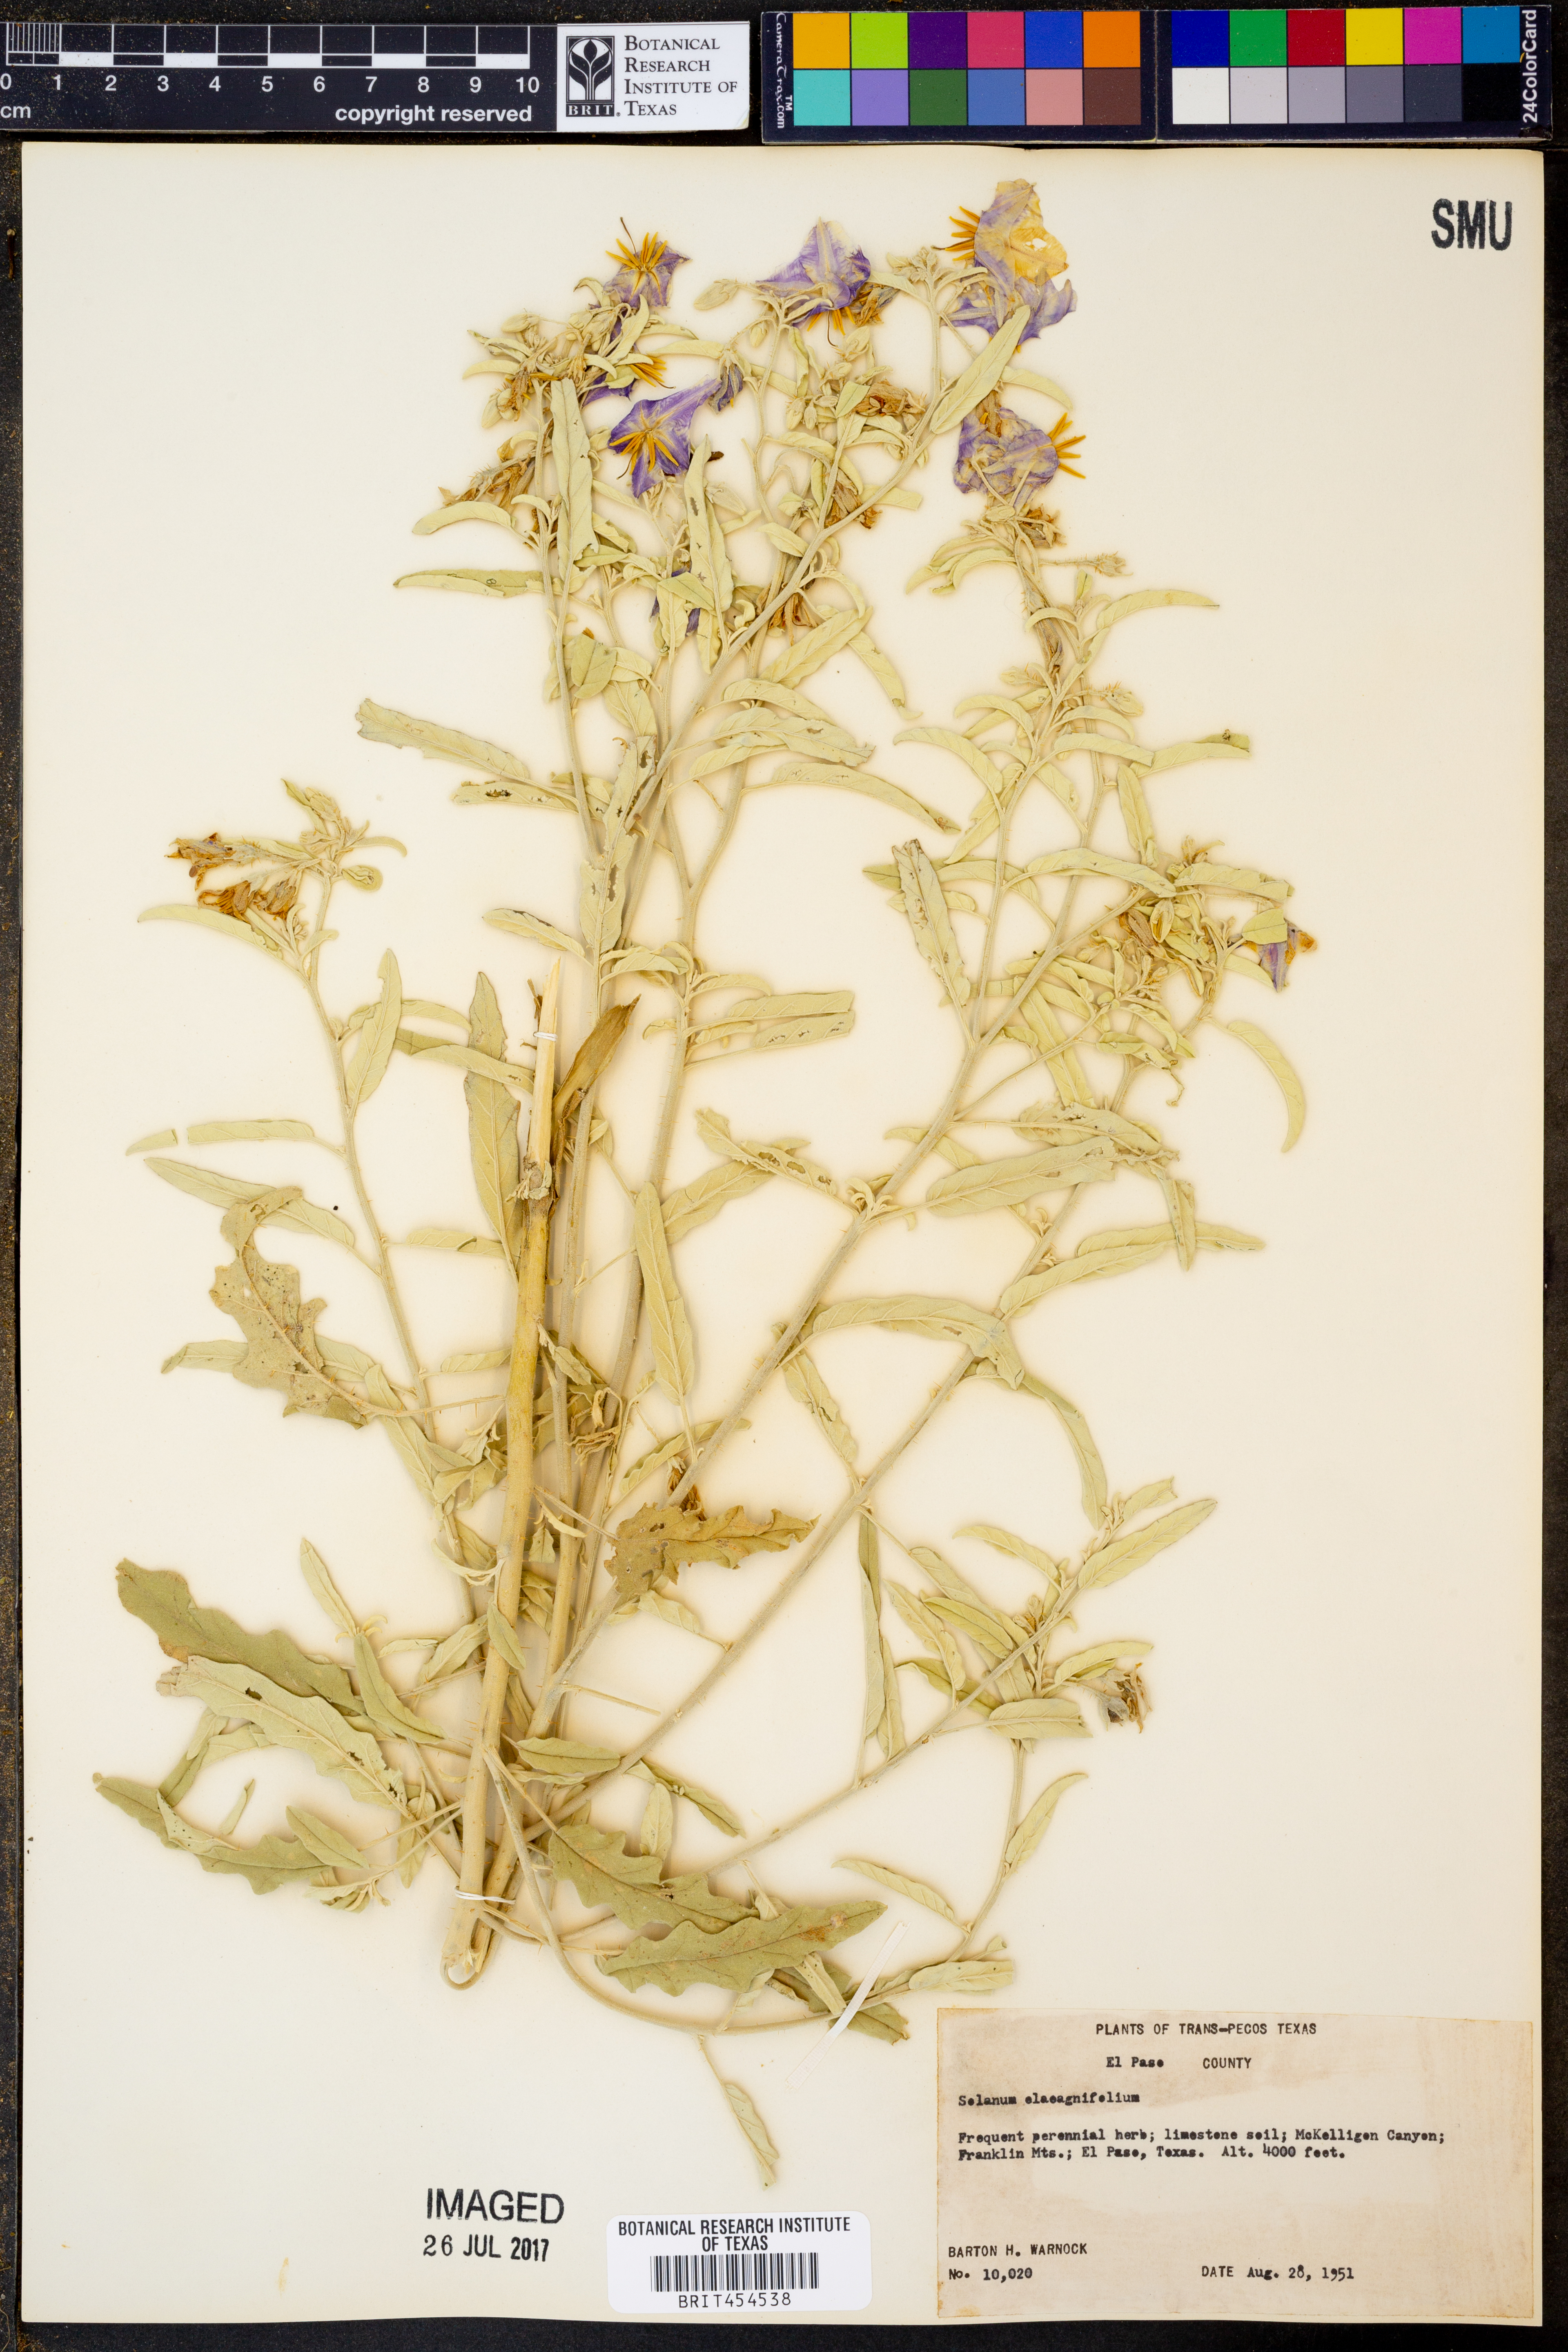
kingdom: Plantae
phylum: Tracheophyta
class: Magnoliopsida
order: Solanales
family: Solanaceae
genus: Solanum
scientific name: Solanum elaeagnifolium
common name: Silverleaf nightshade
